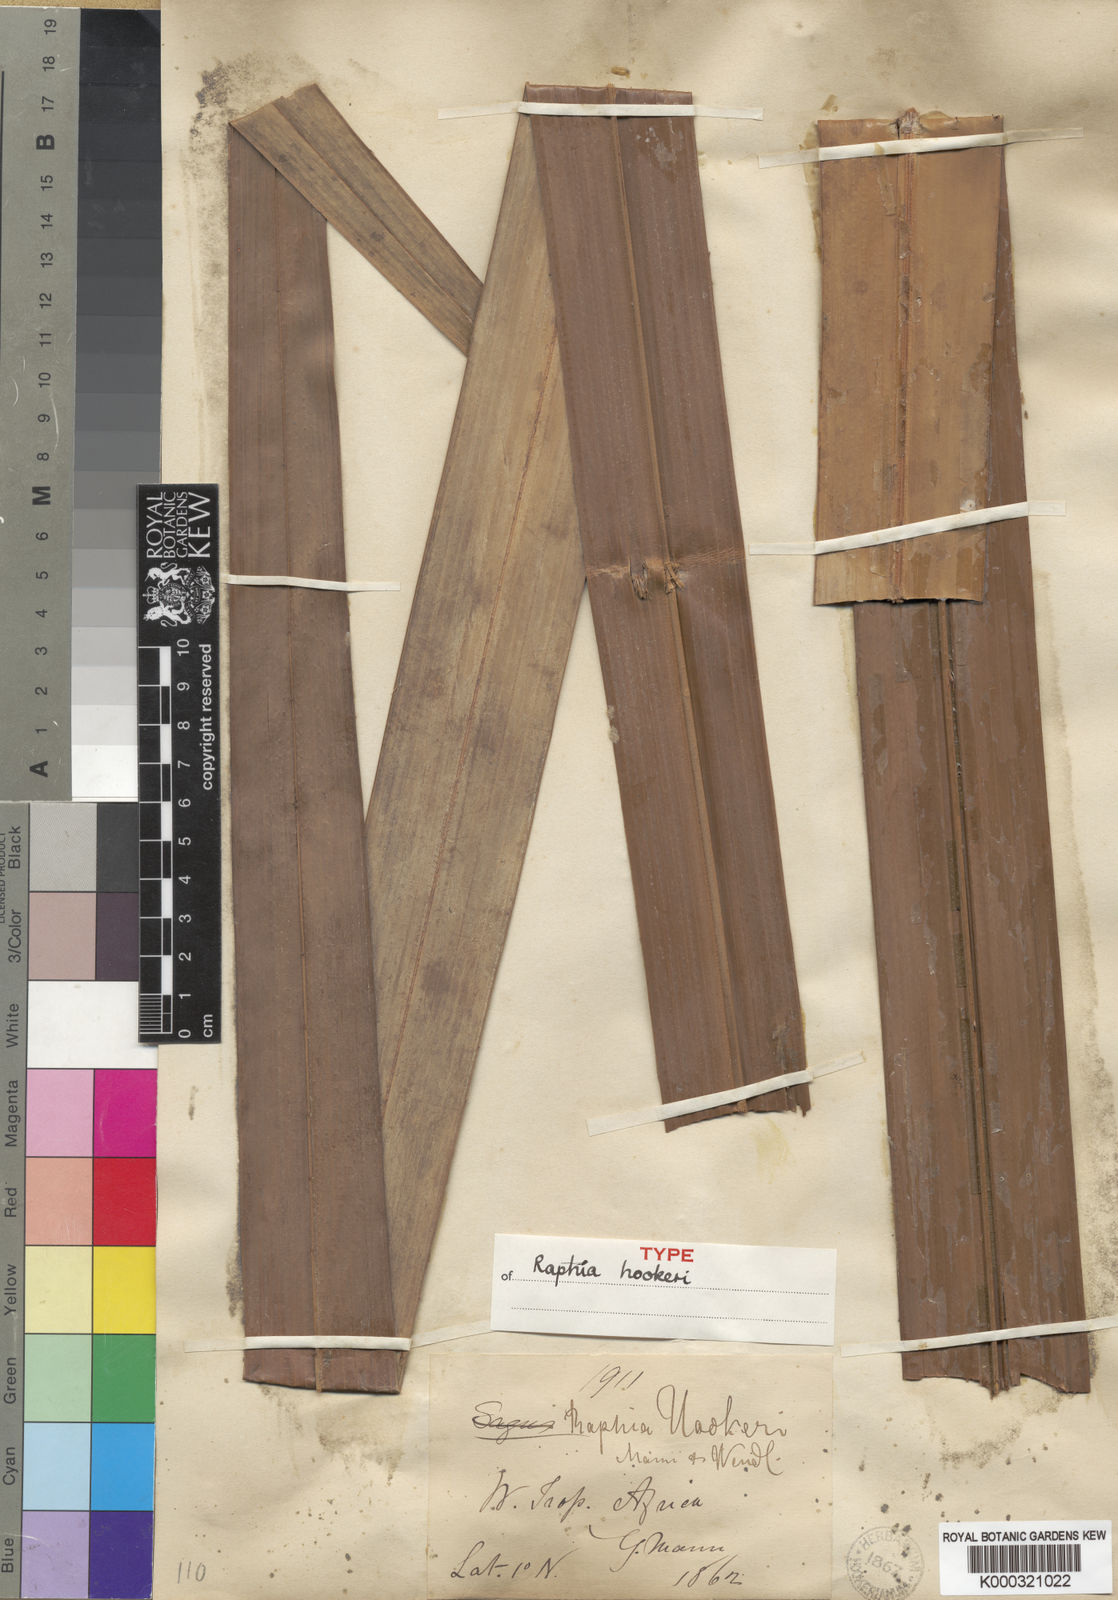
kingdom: Plantae
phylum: Tracheophyta
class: Liliopsida
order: Arecales
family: Arecaceae
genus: Raphia
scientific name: Raphia hookeri
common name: Wine palm
